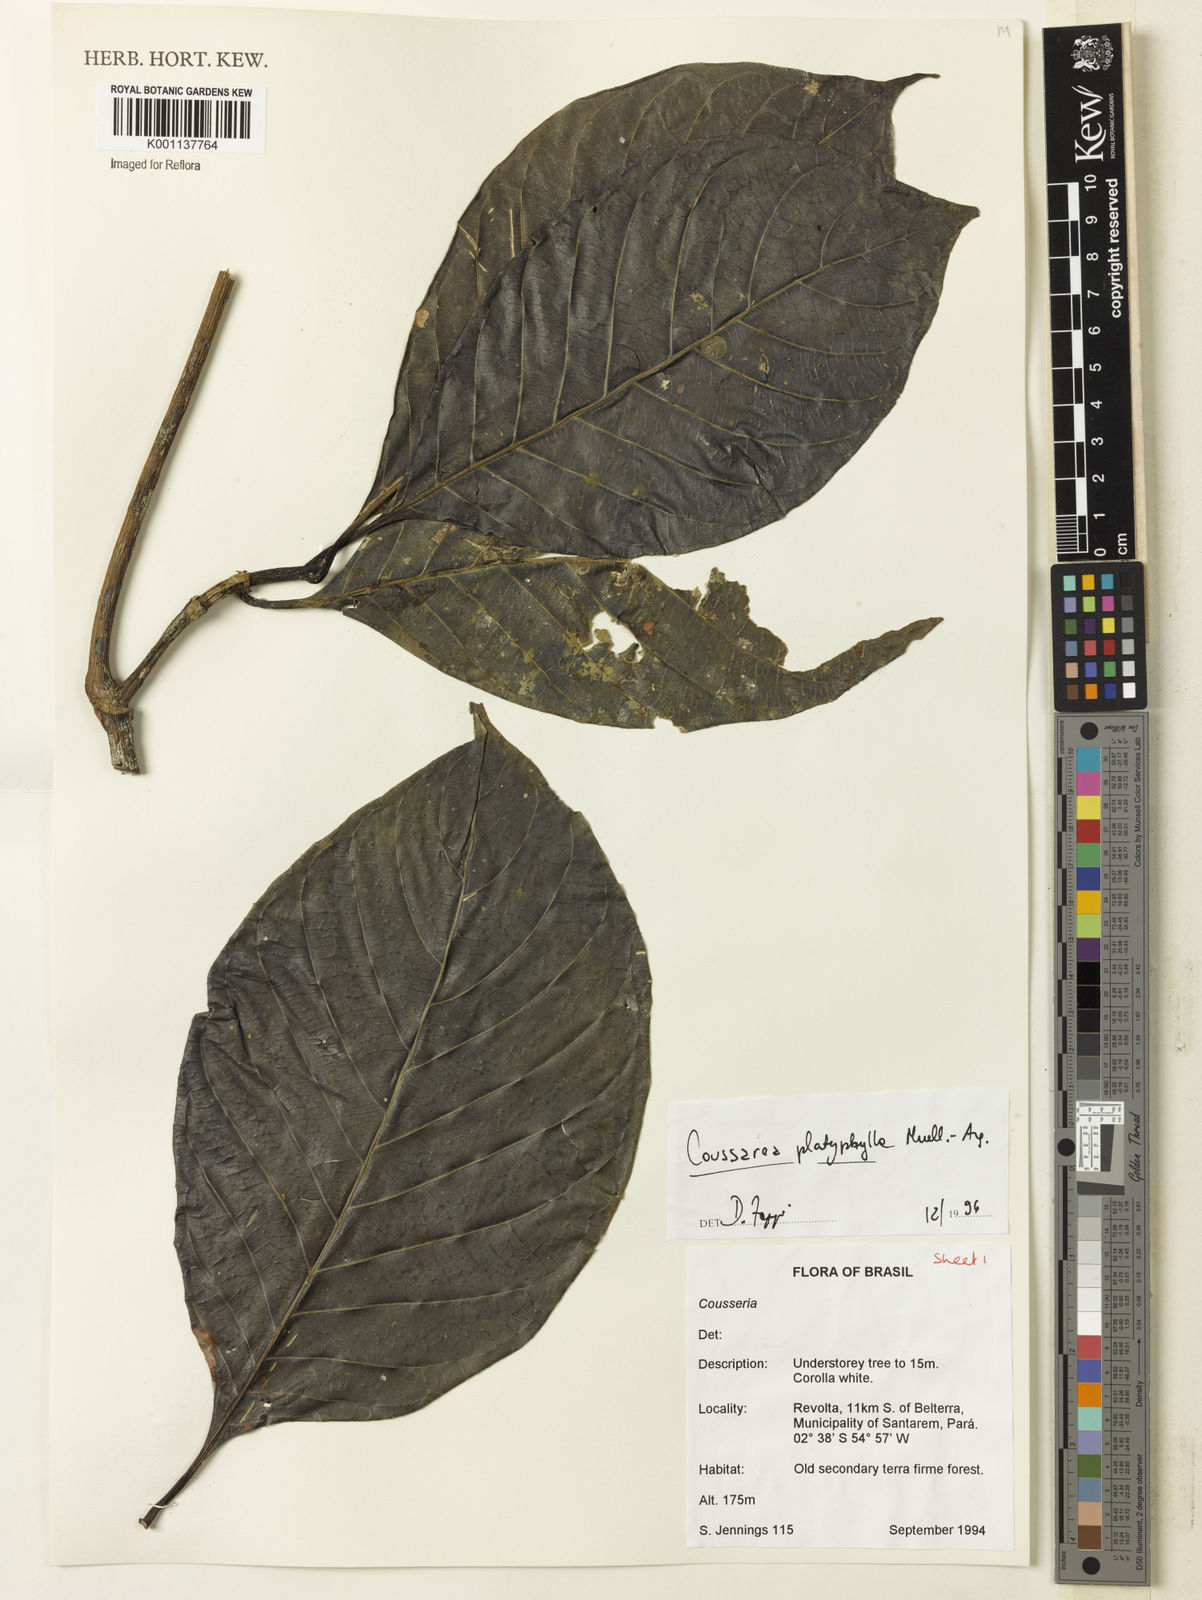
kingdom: Plantae
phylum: Tracheophyta
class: Magnoliopsida
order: Gentianales
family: Rubiaceae
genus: Coussarea
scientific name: Coussarea
